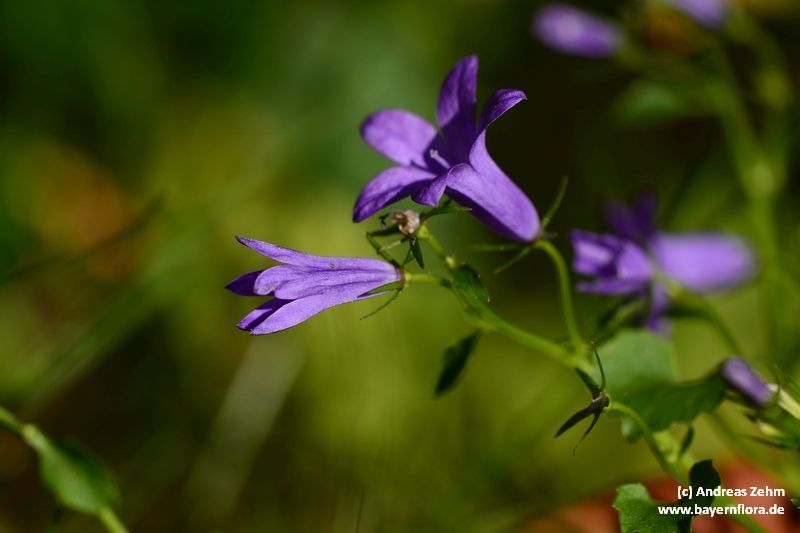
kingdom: Plantae
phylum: Tracheophyta
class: Magnoliopsida
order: Asterales
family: Campanulaceae
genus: Campanula
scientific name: Campanula portenschlagiana
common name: Adria bellflower
